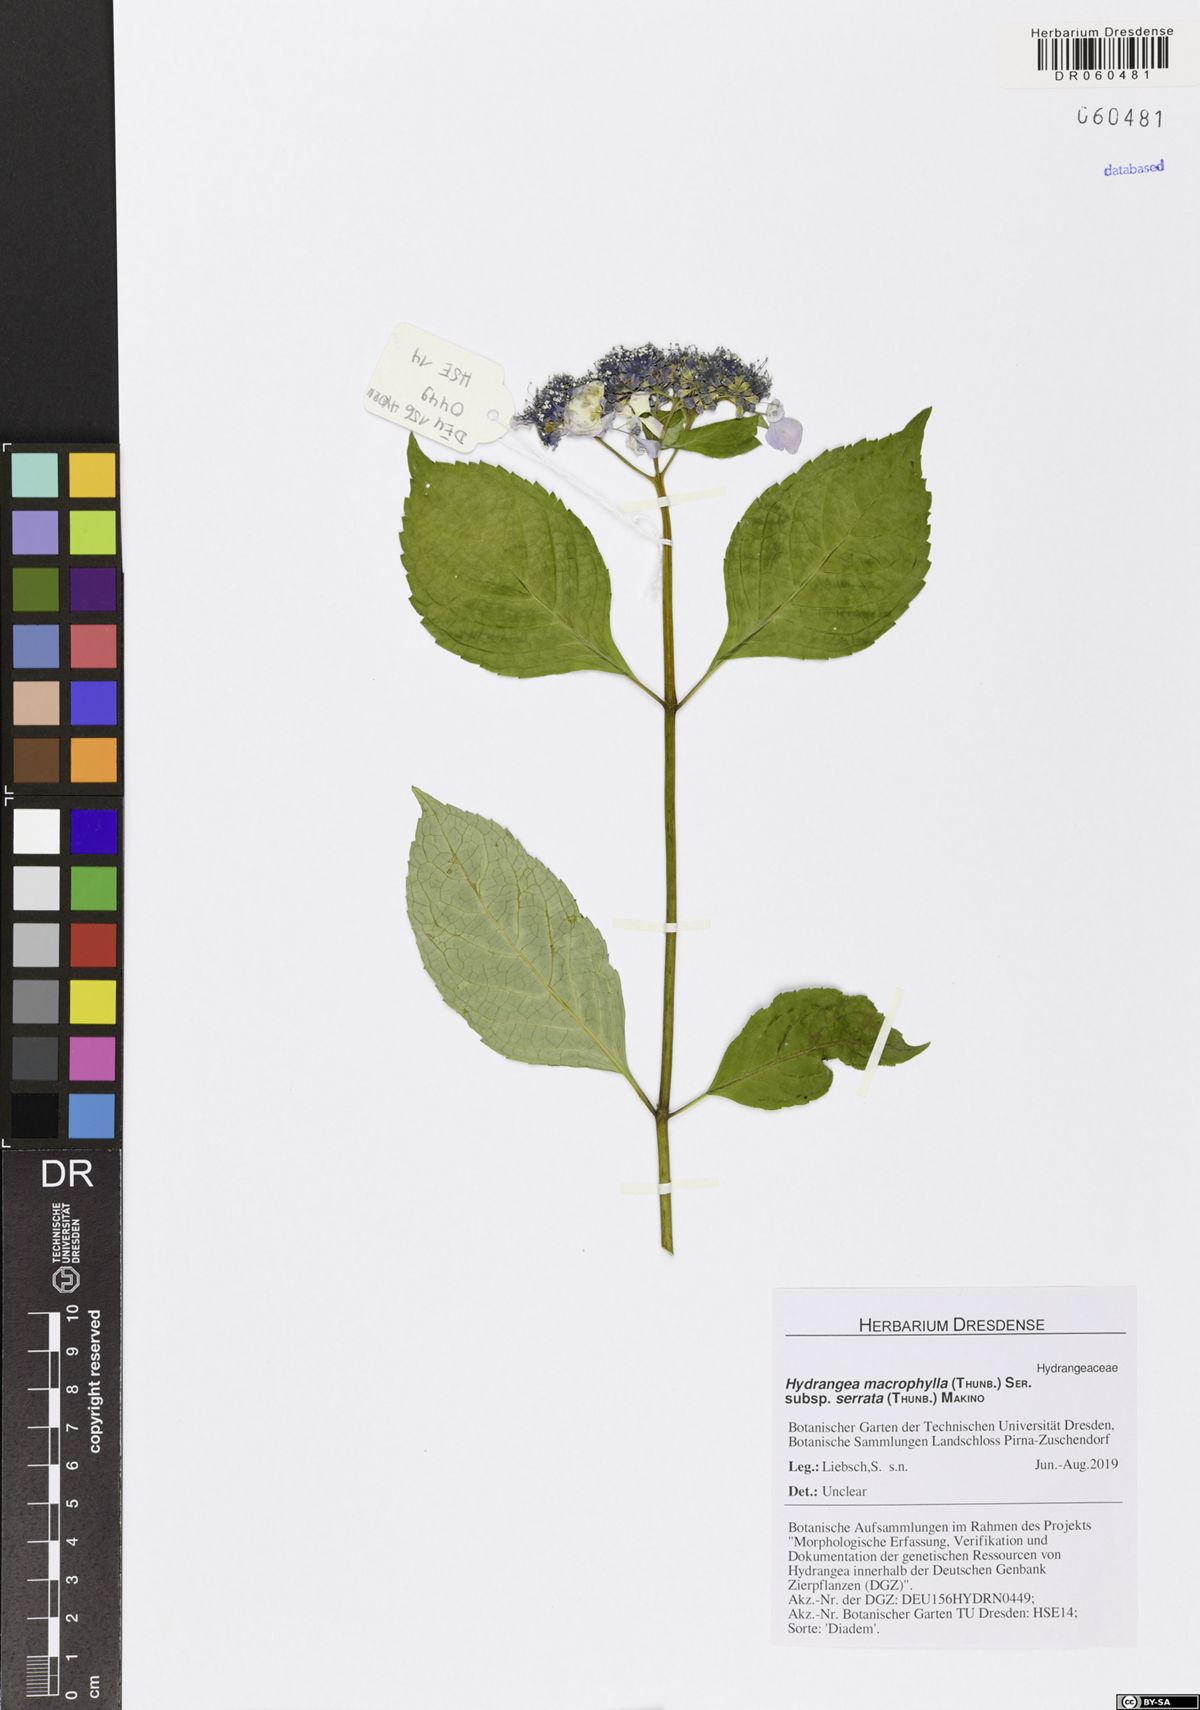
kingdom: Plantae
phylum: Tracheophyta
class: Magnoliopsida
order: Cornales
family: Hydrangeaceae
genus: Hydrangea
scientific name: Hydrangea serrata
